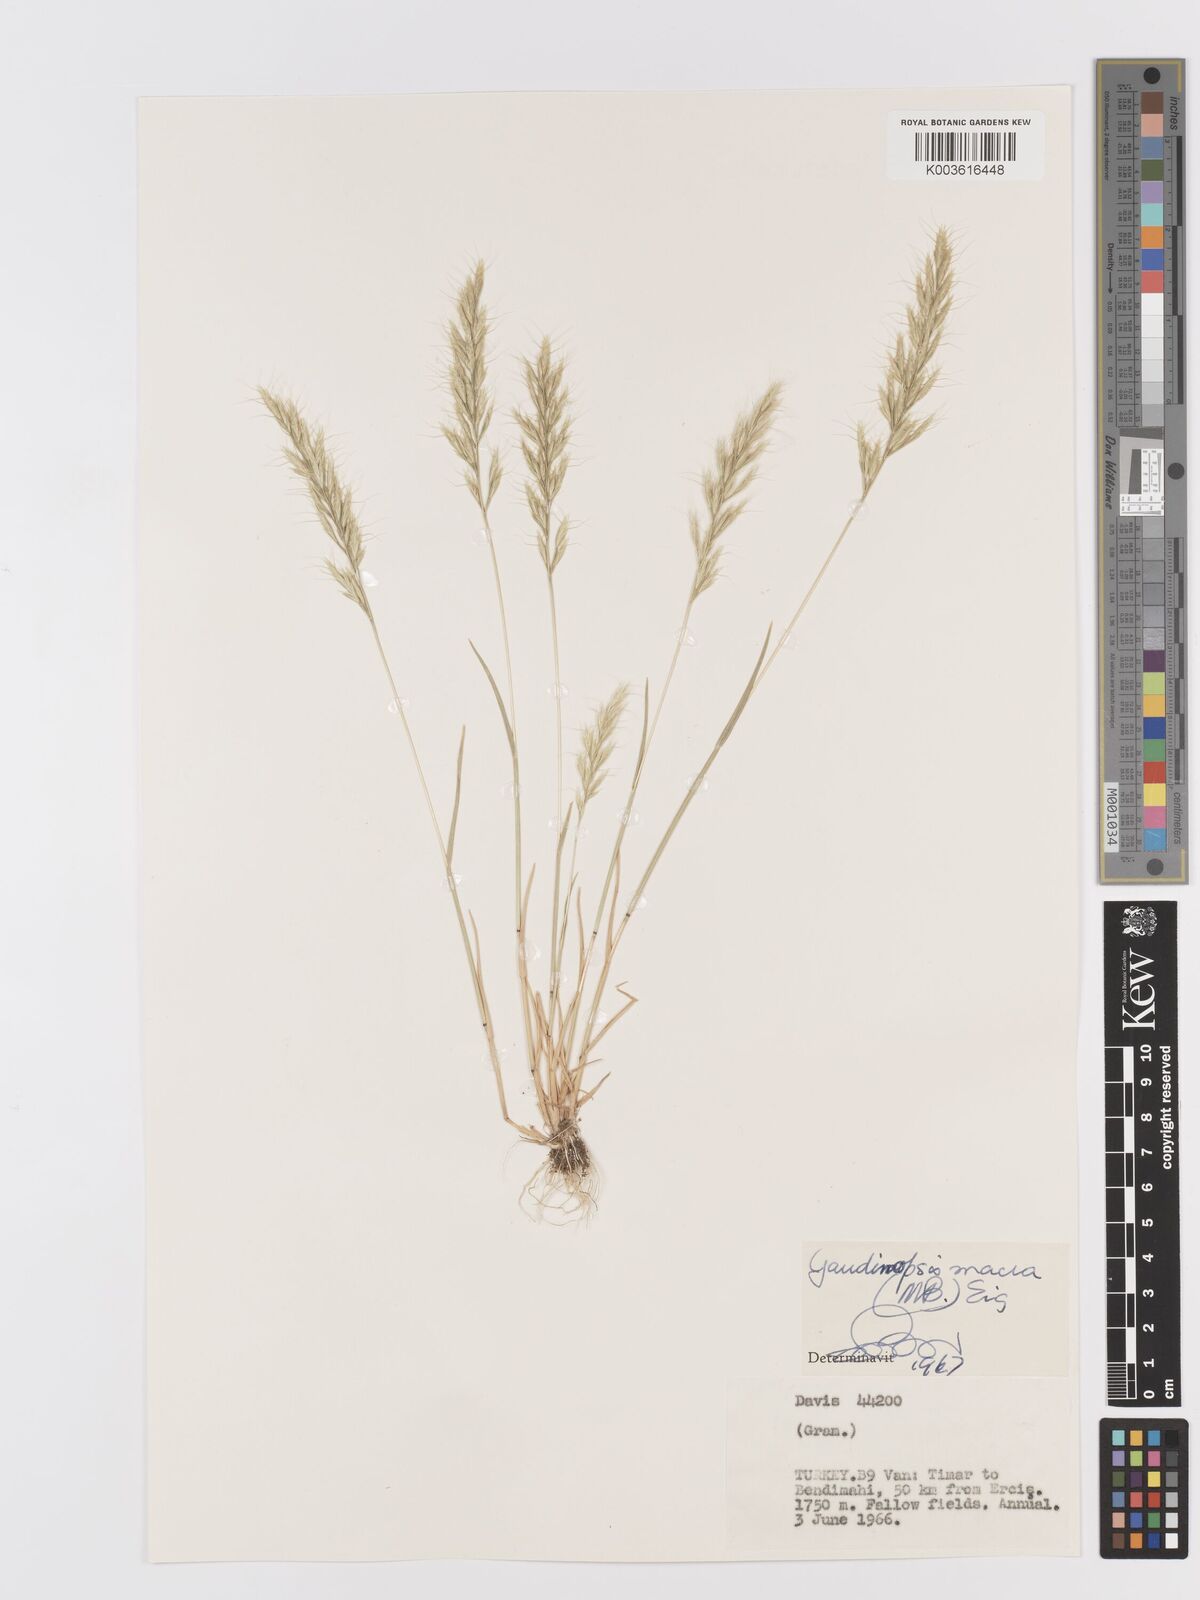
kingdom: Plantae
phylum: Tracheophyta
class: Liliopsida
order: Poales
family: Poaceae
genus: Ventenata
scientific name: Ventenata macra
